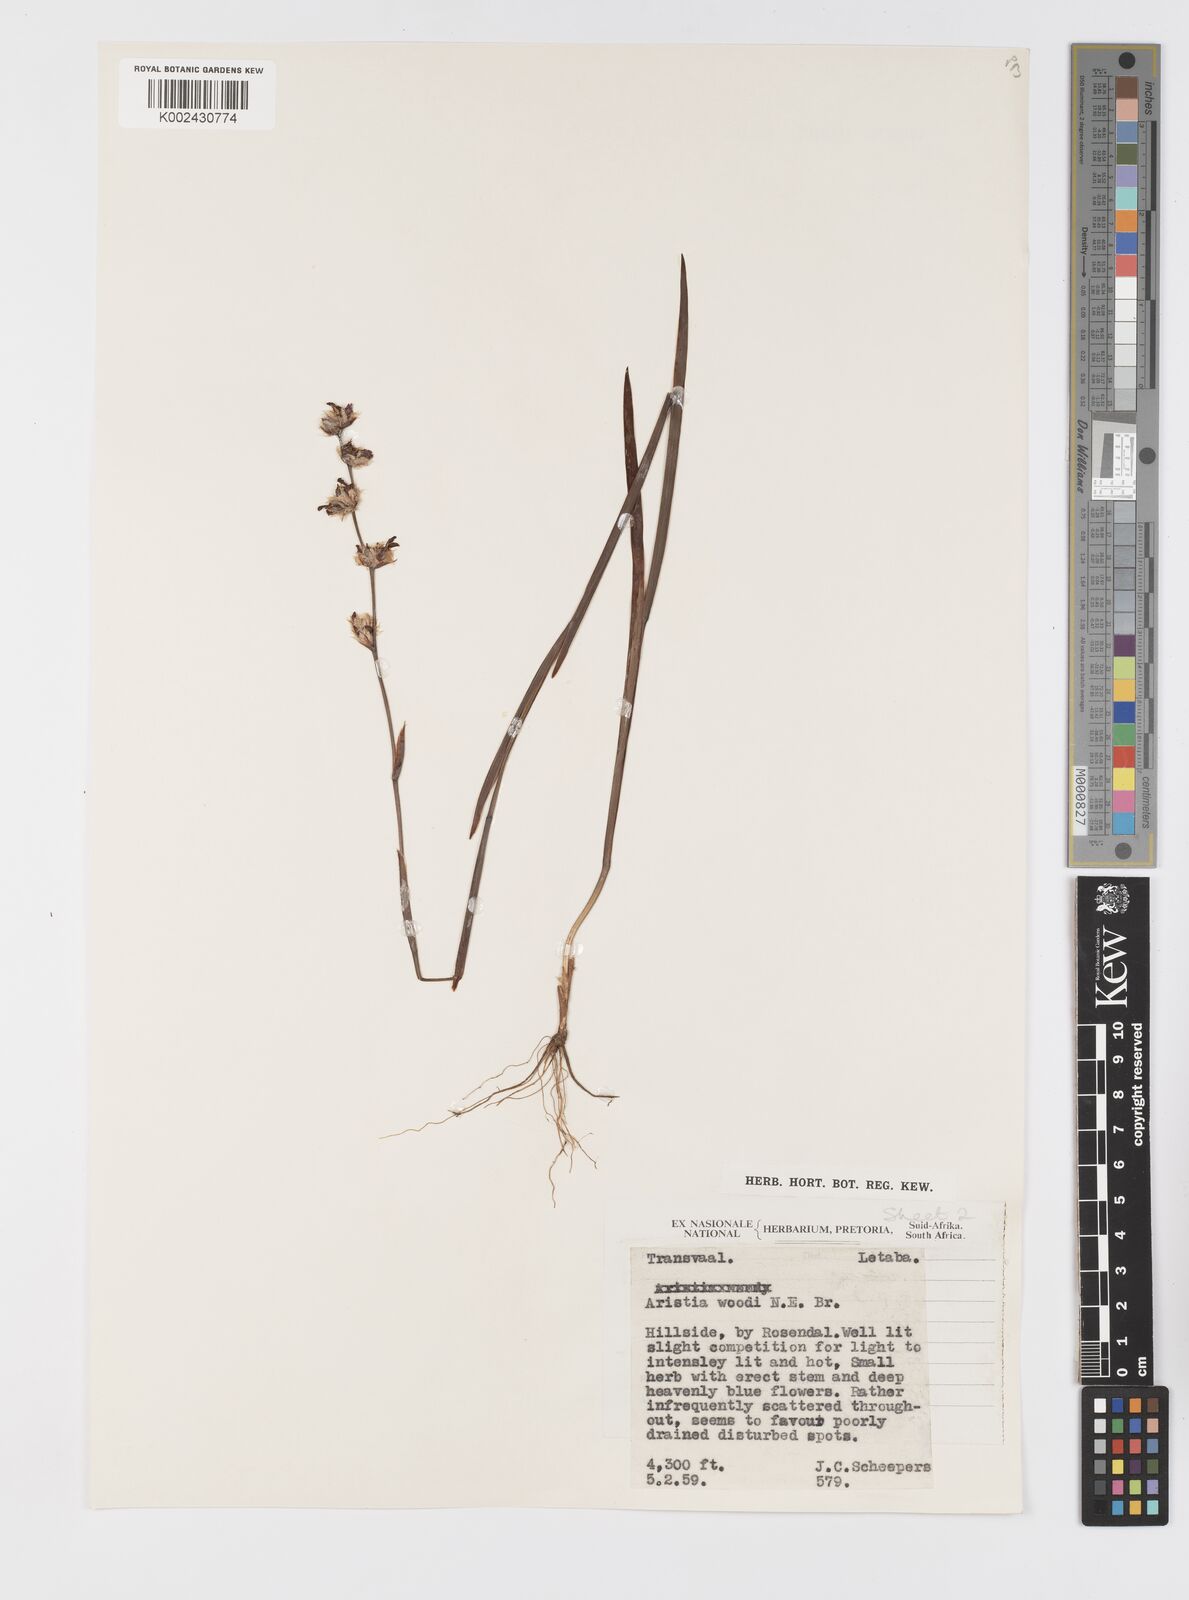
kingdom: Plantae
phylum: Tracheophyta
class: Liliopsida
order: Asparagales
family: Iridaceae
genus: Aristea
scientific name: Aristea torulosa
